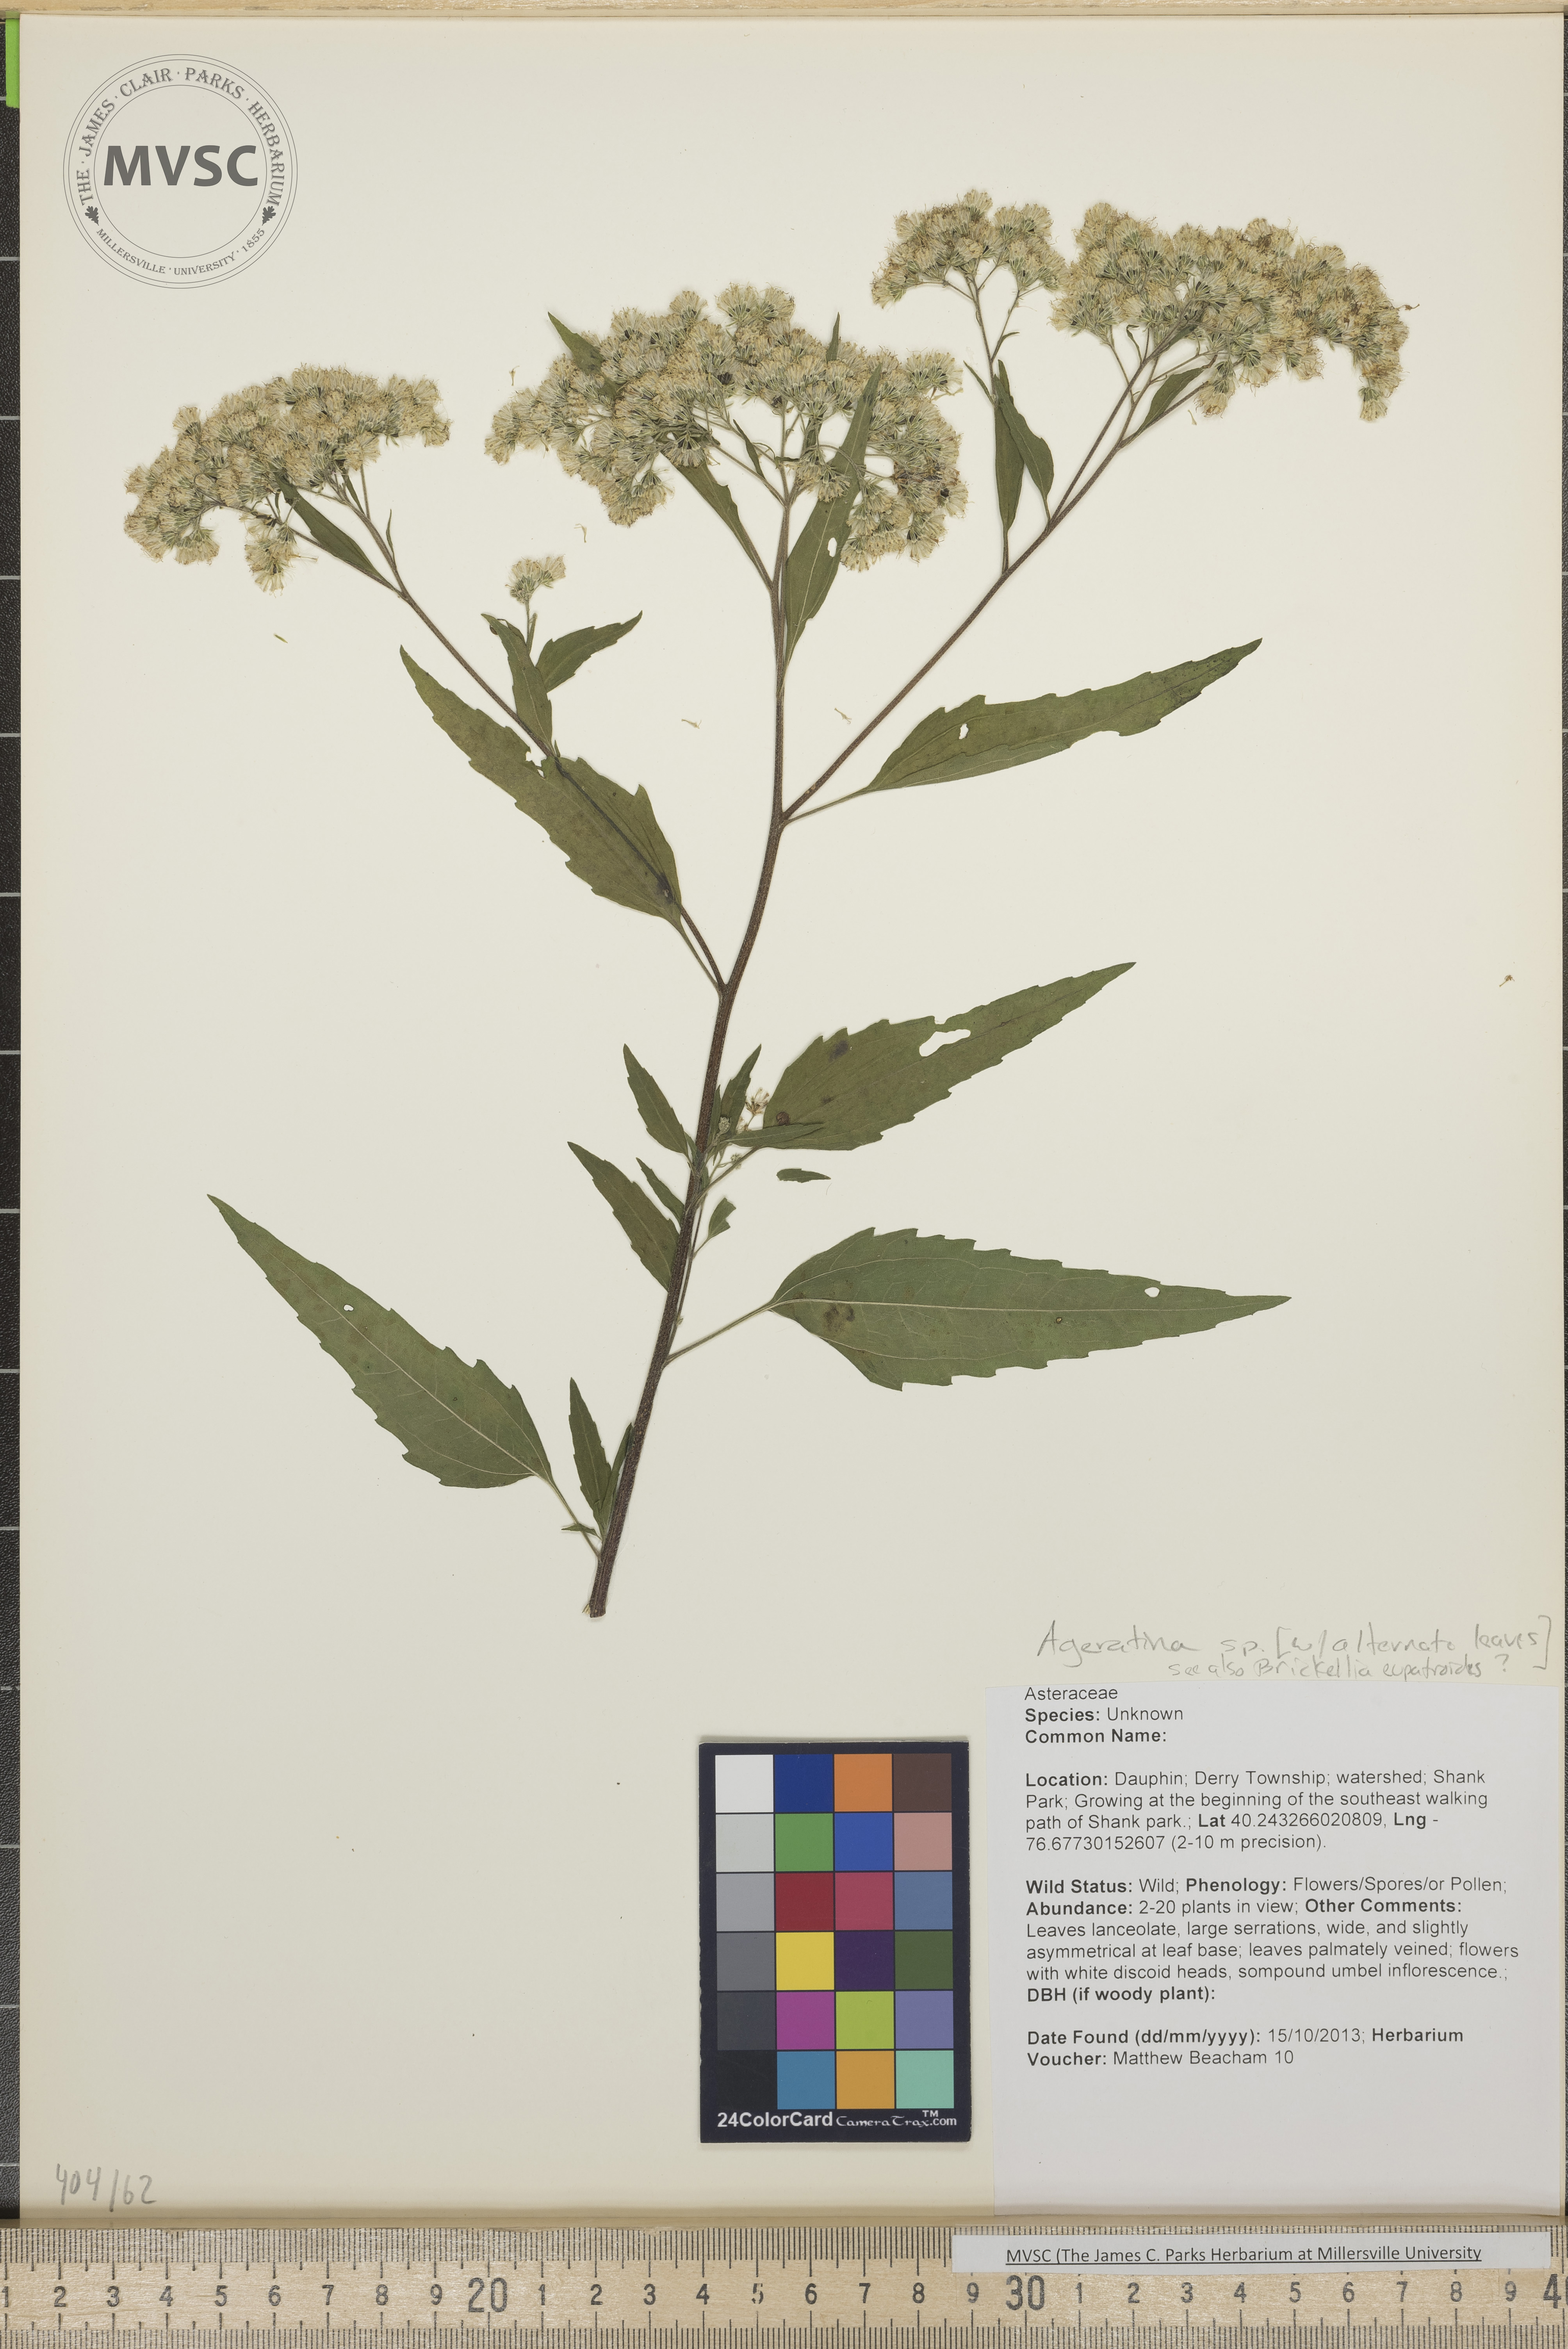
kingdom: Plantae
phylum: Tracheophyta
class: Magnoliopsida
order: Asterales
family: Asteraceae
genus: Eupatorium
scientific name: Eupatorium pilosum
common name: Rough boneset
